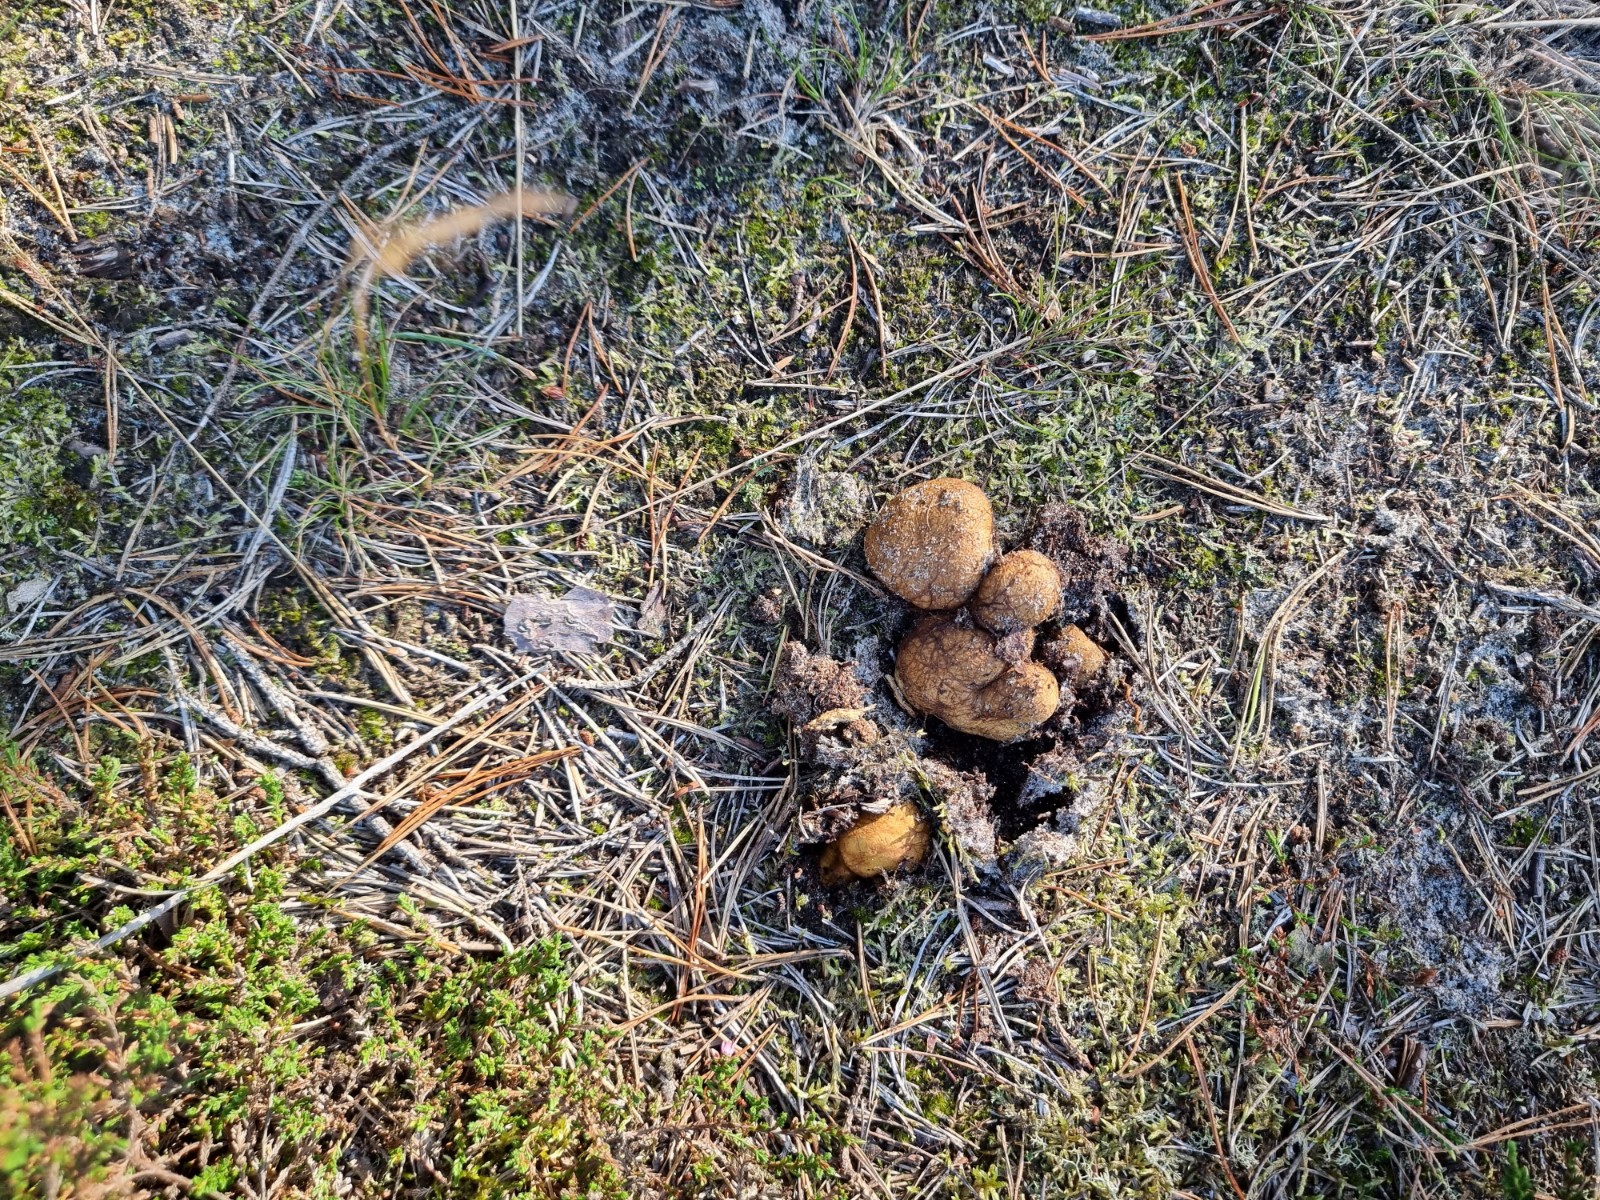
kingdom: Fungi
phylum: Basidiomycota
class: Agaricomycetes
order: Boletales
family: Rhizopogonaceae
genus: Rhizopogon
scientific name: Rhizopogon obtextus
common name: gul skægtrøffel
